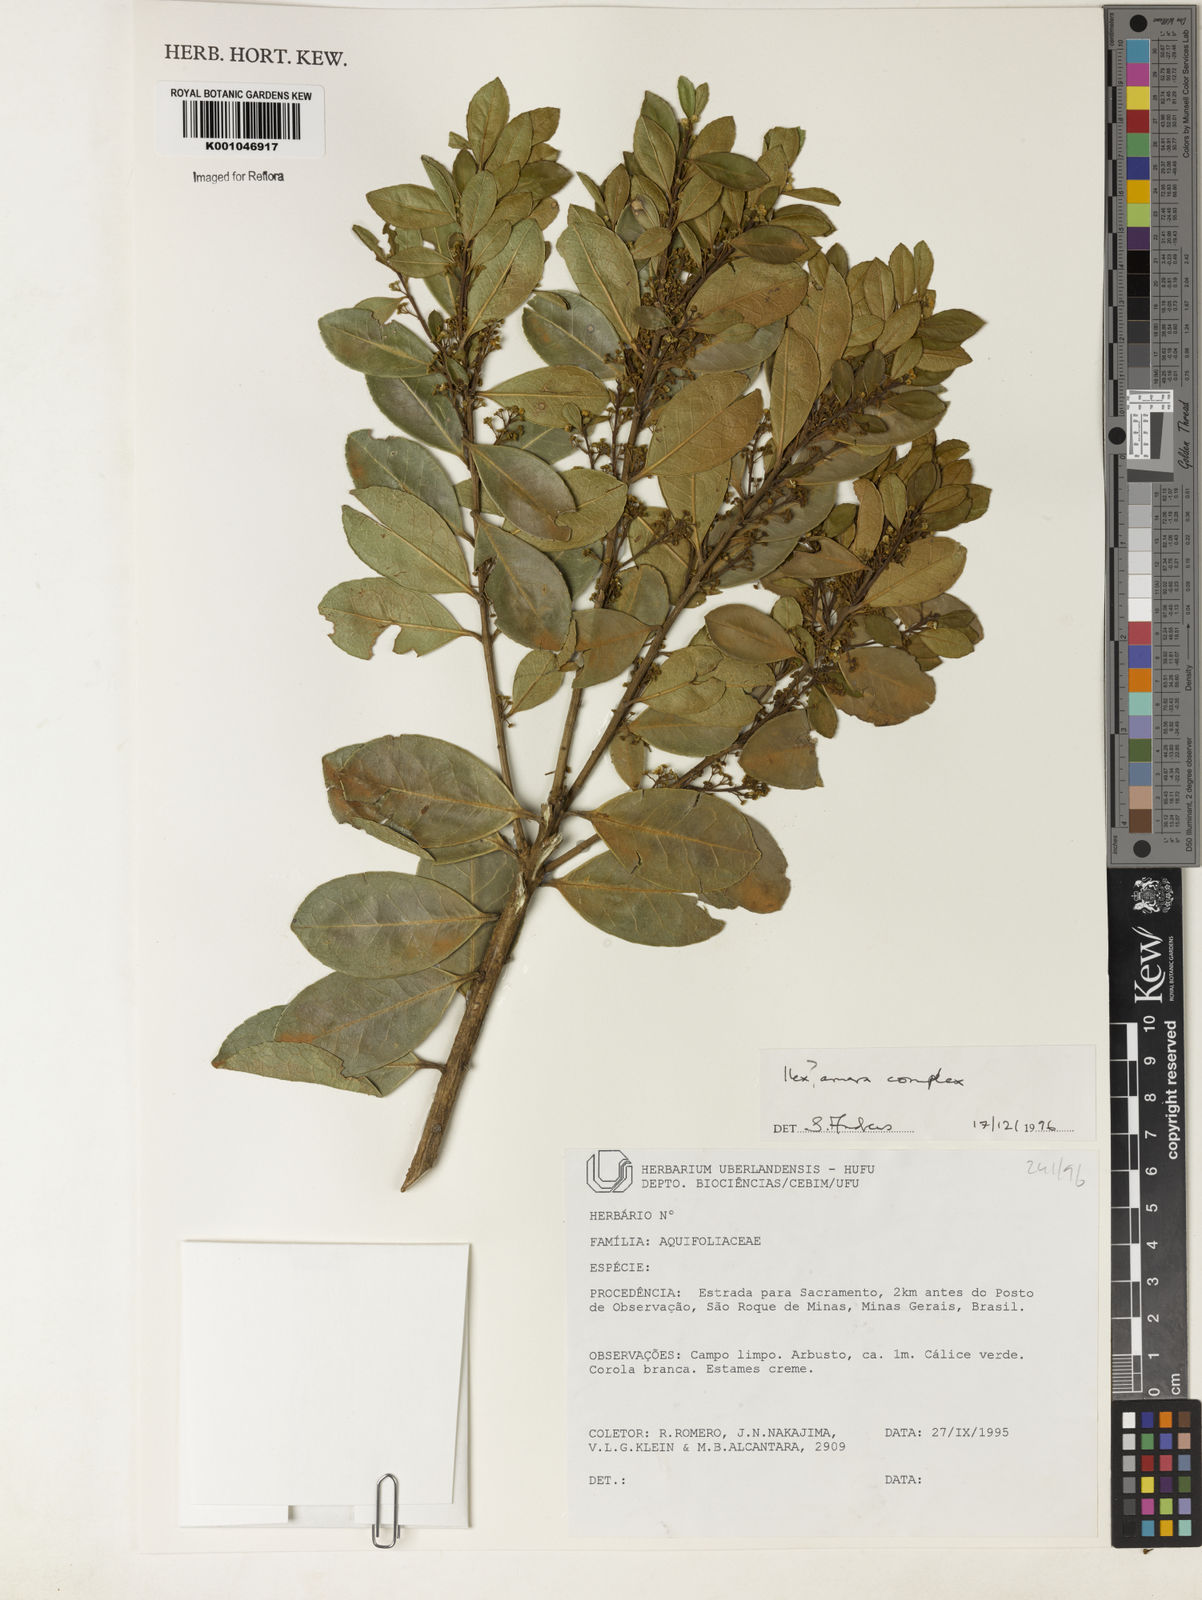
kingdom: Plantae
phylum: Tracheophyta
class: Magnoliopsida
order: Aquifoliales
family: Aquifoliaceae
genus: Ilex
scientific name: Ilex
